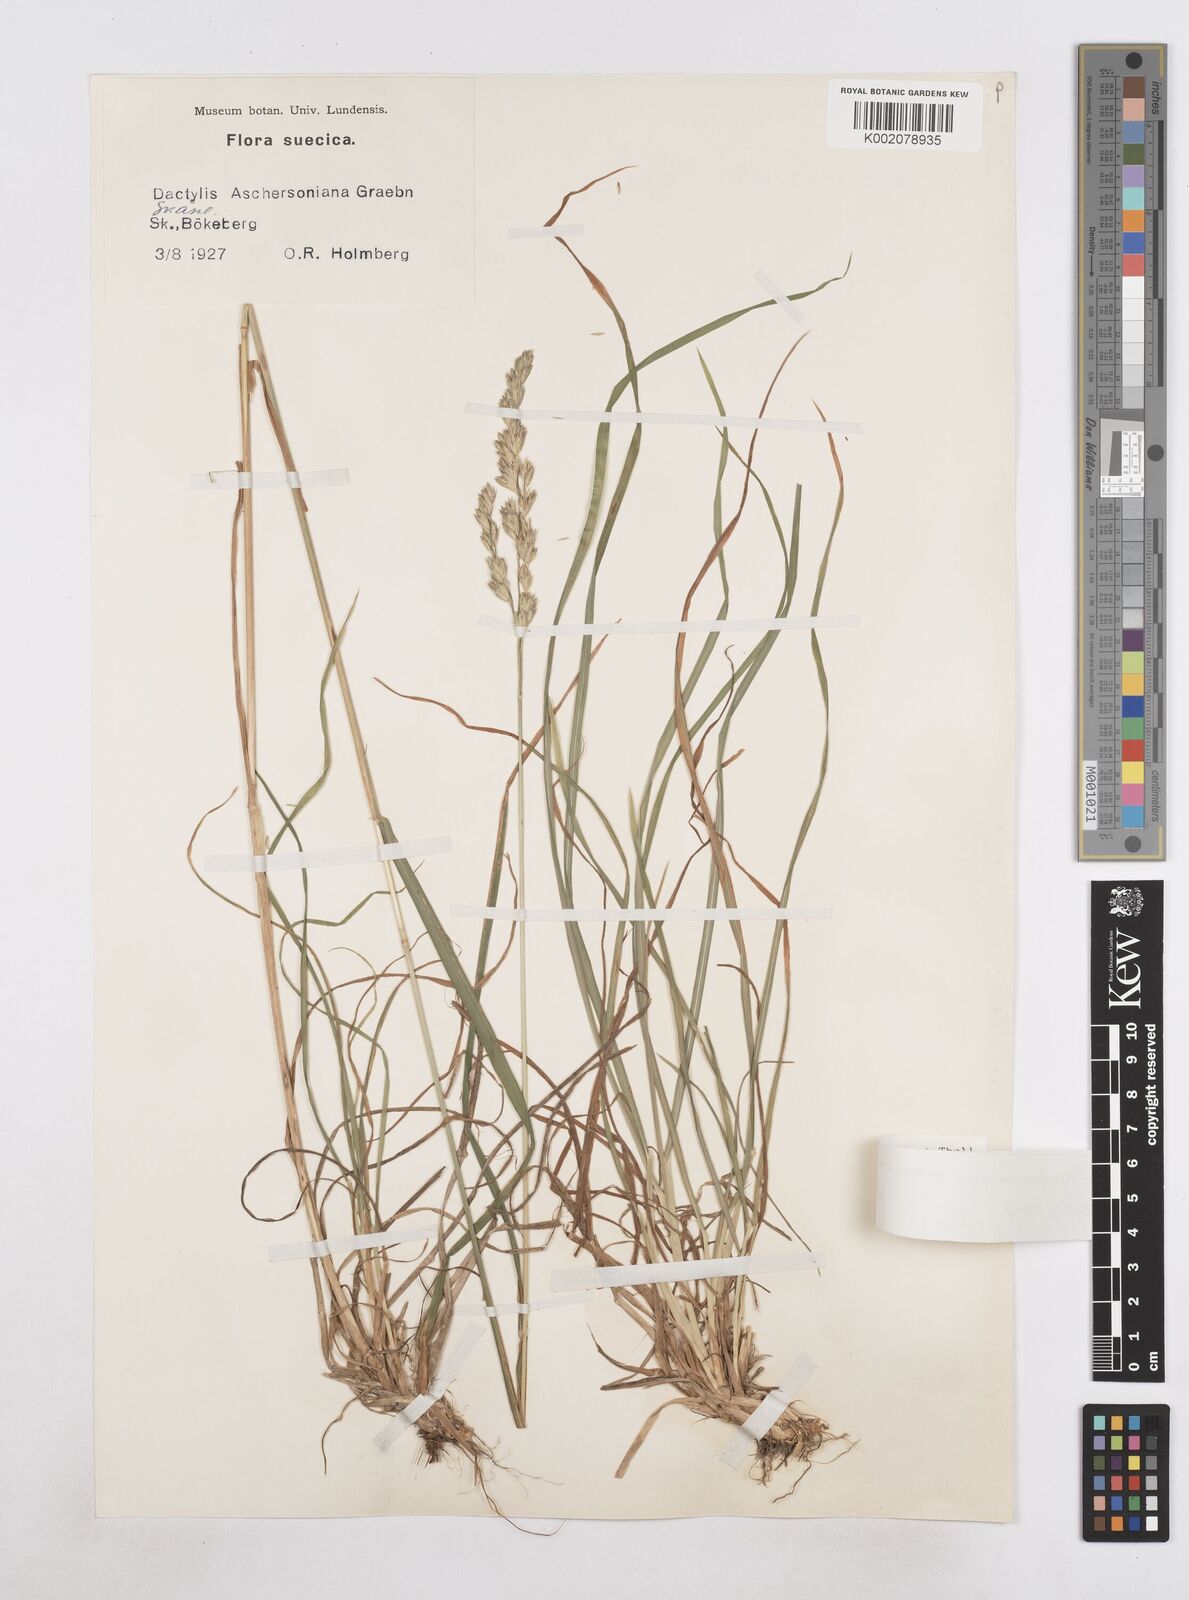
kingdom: Plantae
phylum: Tracheophyta
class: Liliopsida
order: Poales
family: Poaceae
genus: Dactylis
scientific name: Dactylis glomerata
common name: Orchardgrass
